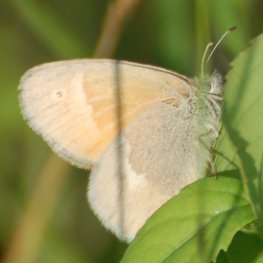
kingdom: Animalia
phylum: Arthropoda
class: Insecta
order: Lepidoptera
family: Nymphalidae
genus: Coenonympha
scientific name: Coenonympha tullia
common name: Large Heath
